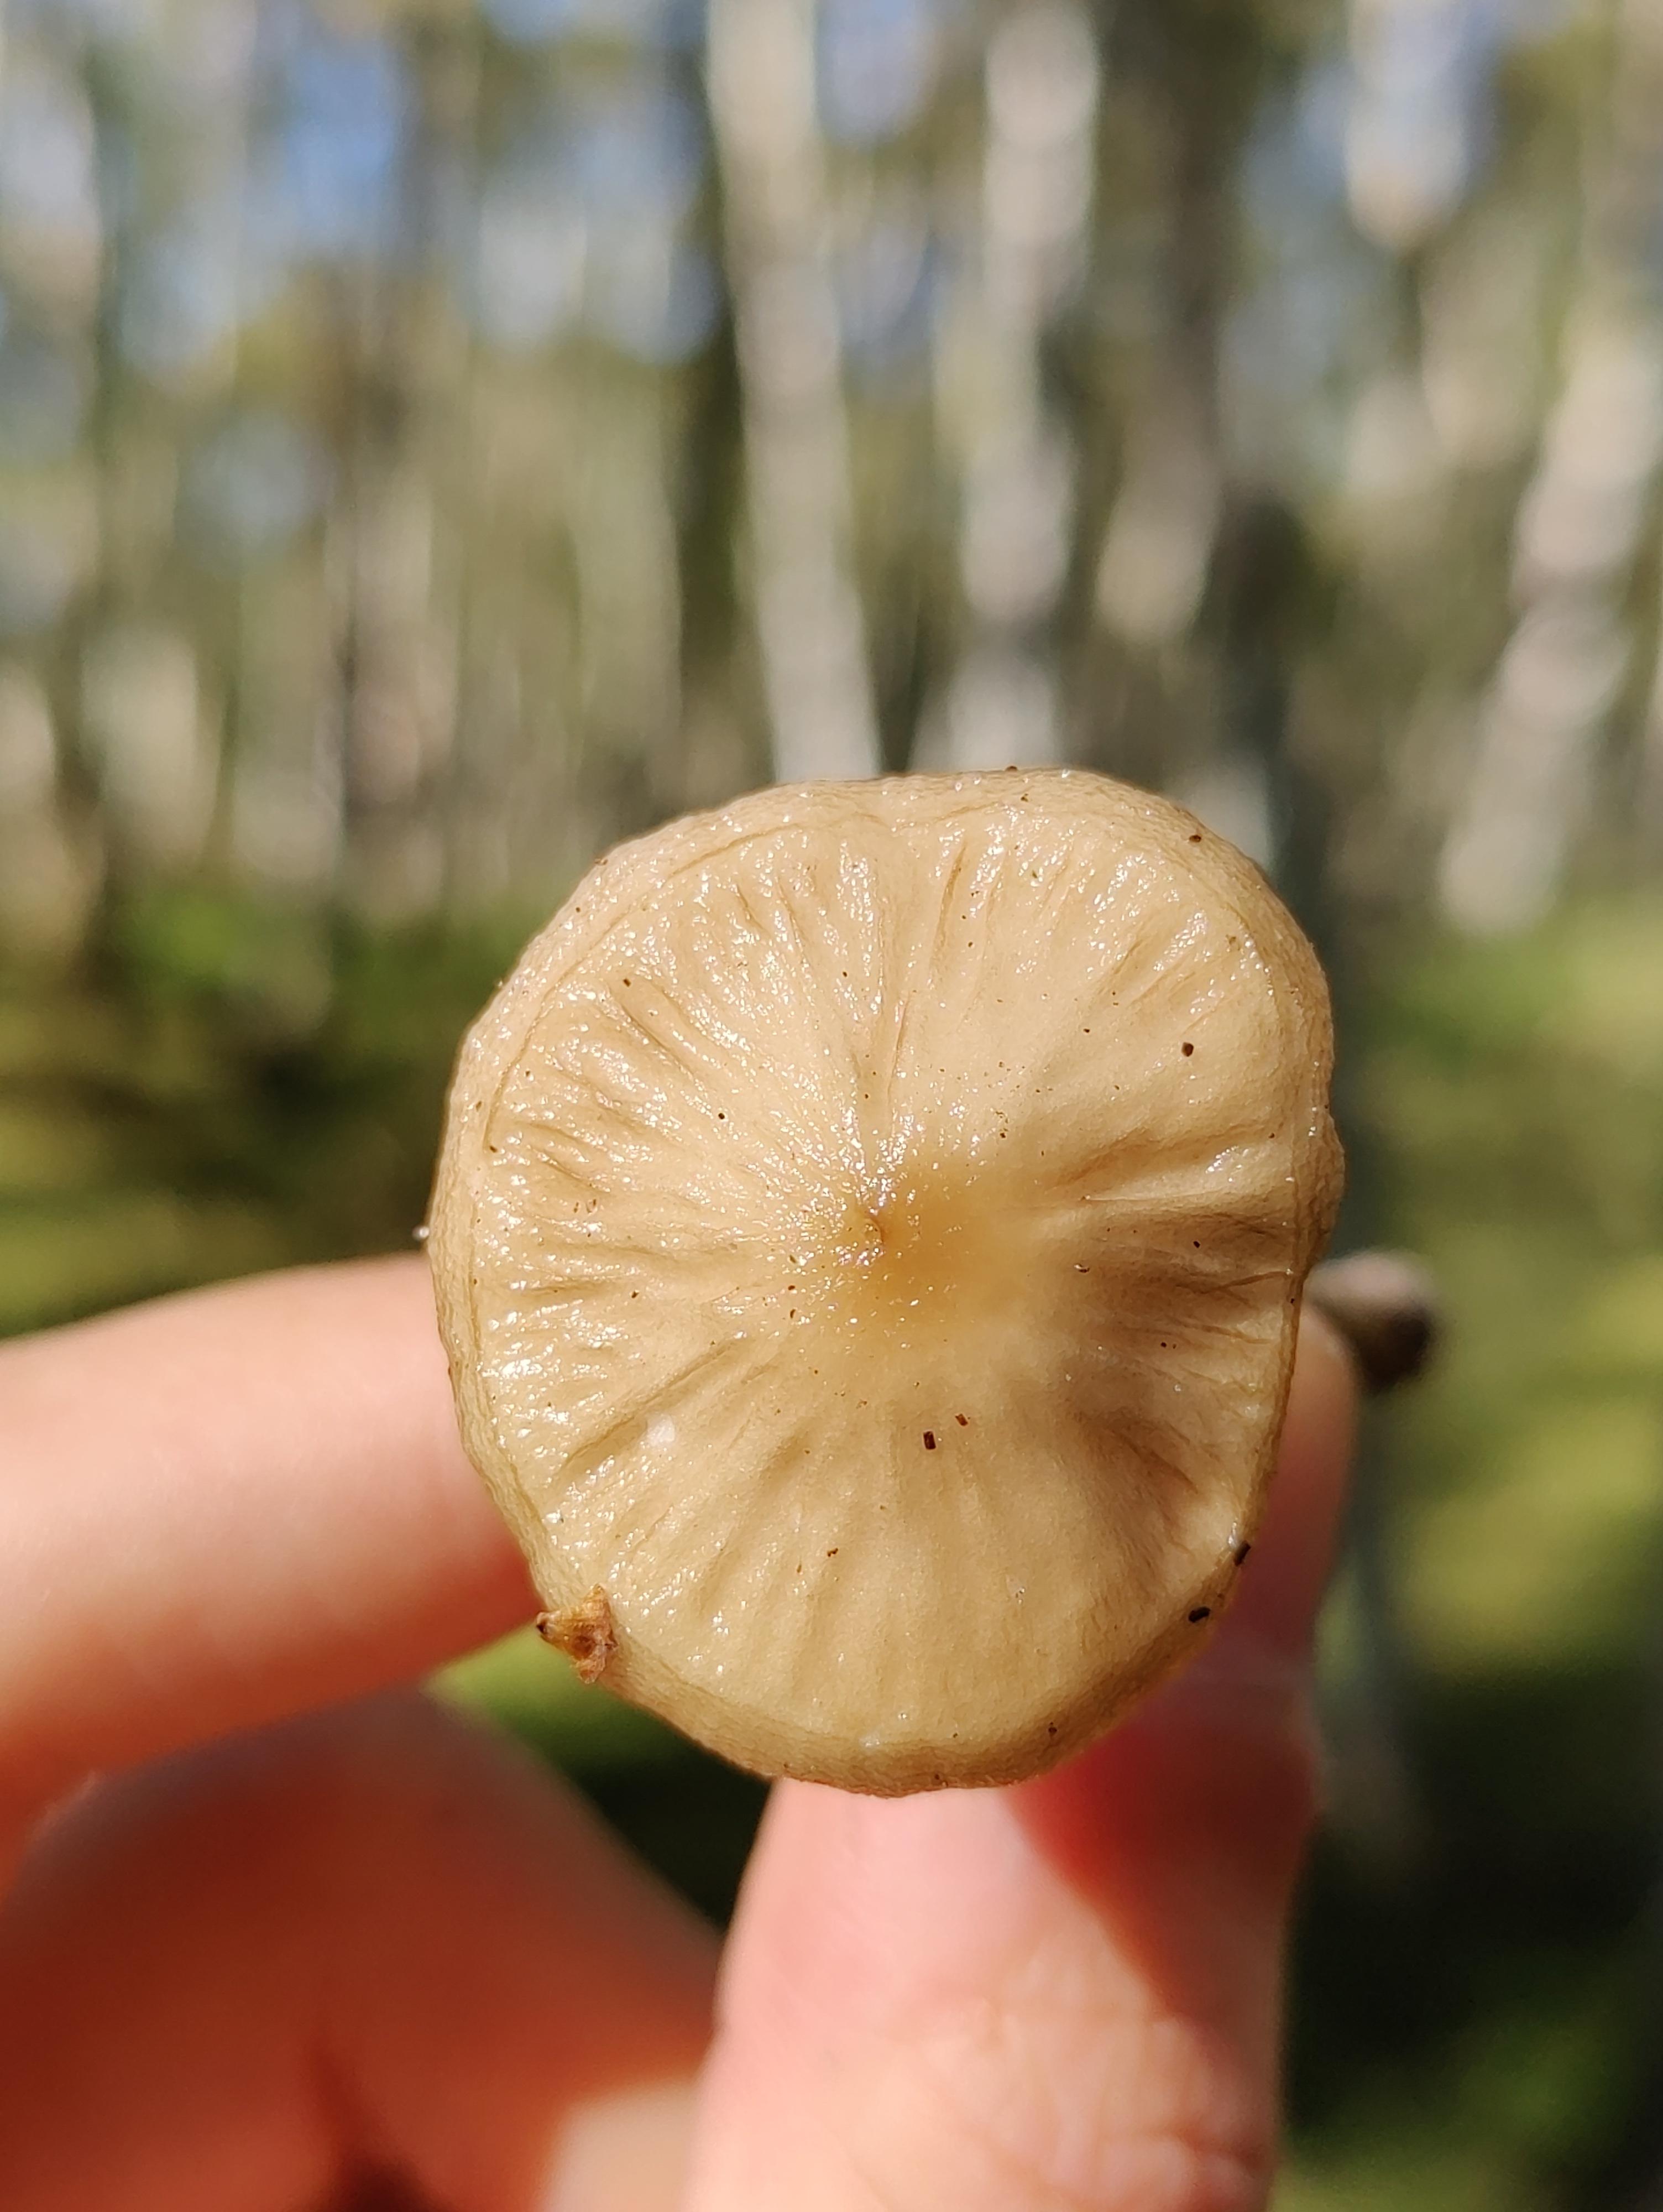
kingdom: Fungi
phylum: Basidiomycota
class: Agaricomycetes
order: Agaricales
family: Physalacriaceae
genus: Hymenopellis
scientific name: Hymenopellis radicata
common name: almindelig pælerodshat
